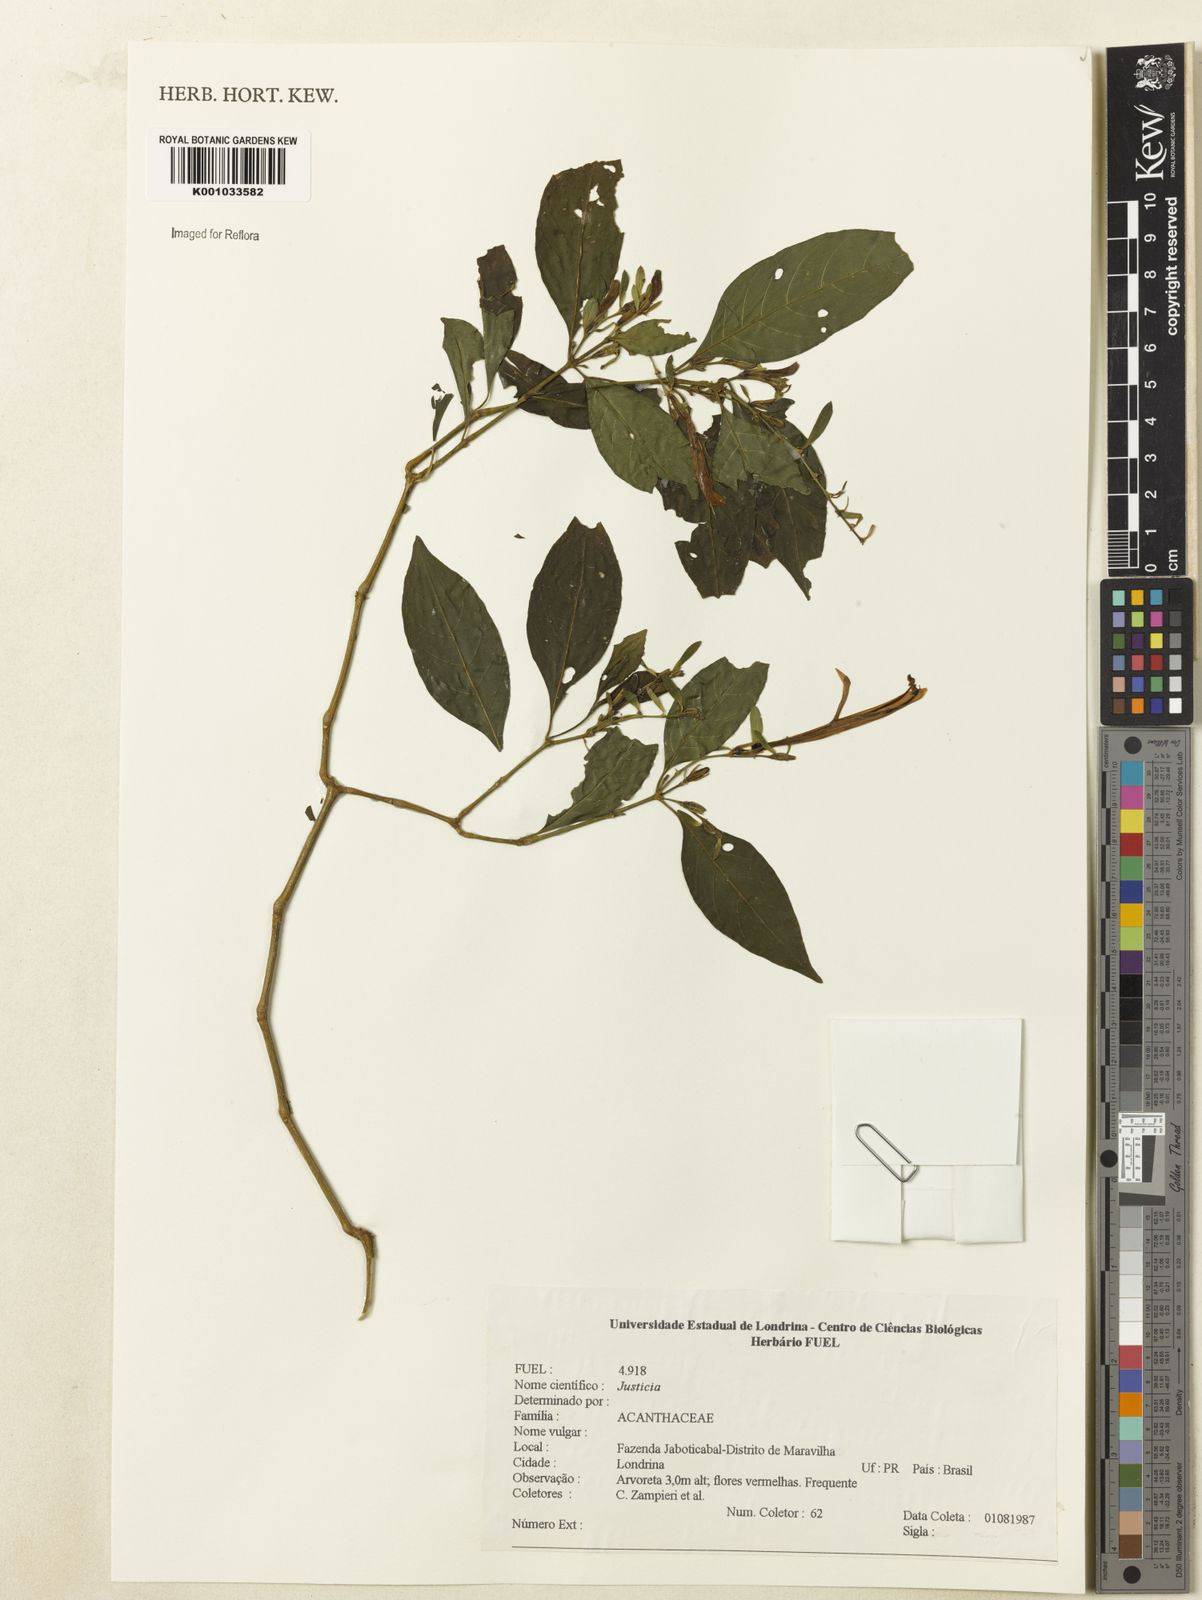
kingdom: Plantae
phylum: Tracheophyta
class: Magnoliopsida
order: Lamiales
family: Acanthaceae
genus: Justicia
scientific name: Justicia
